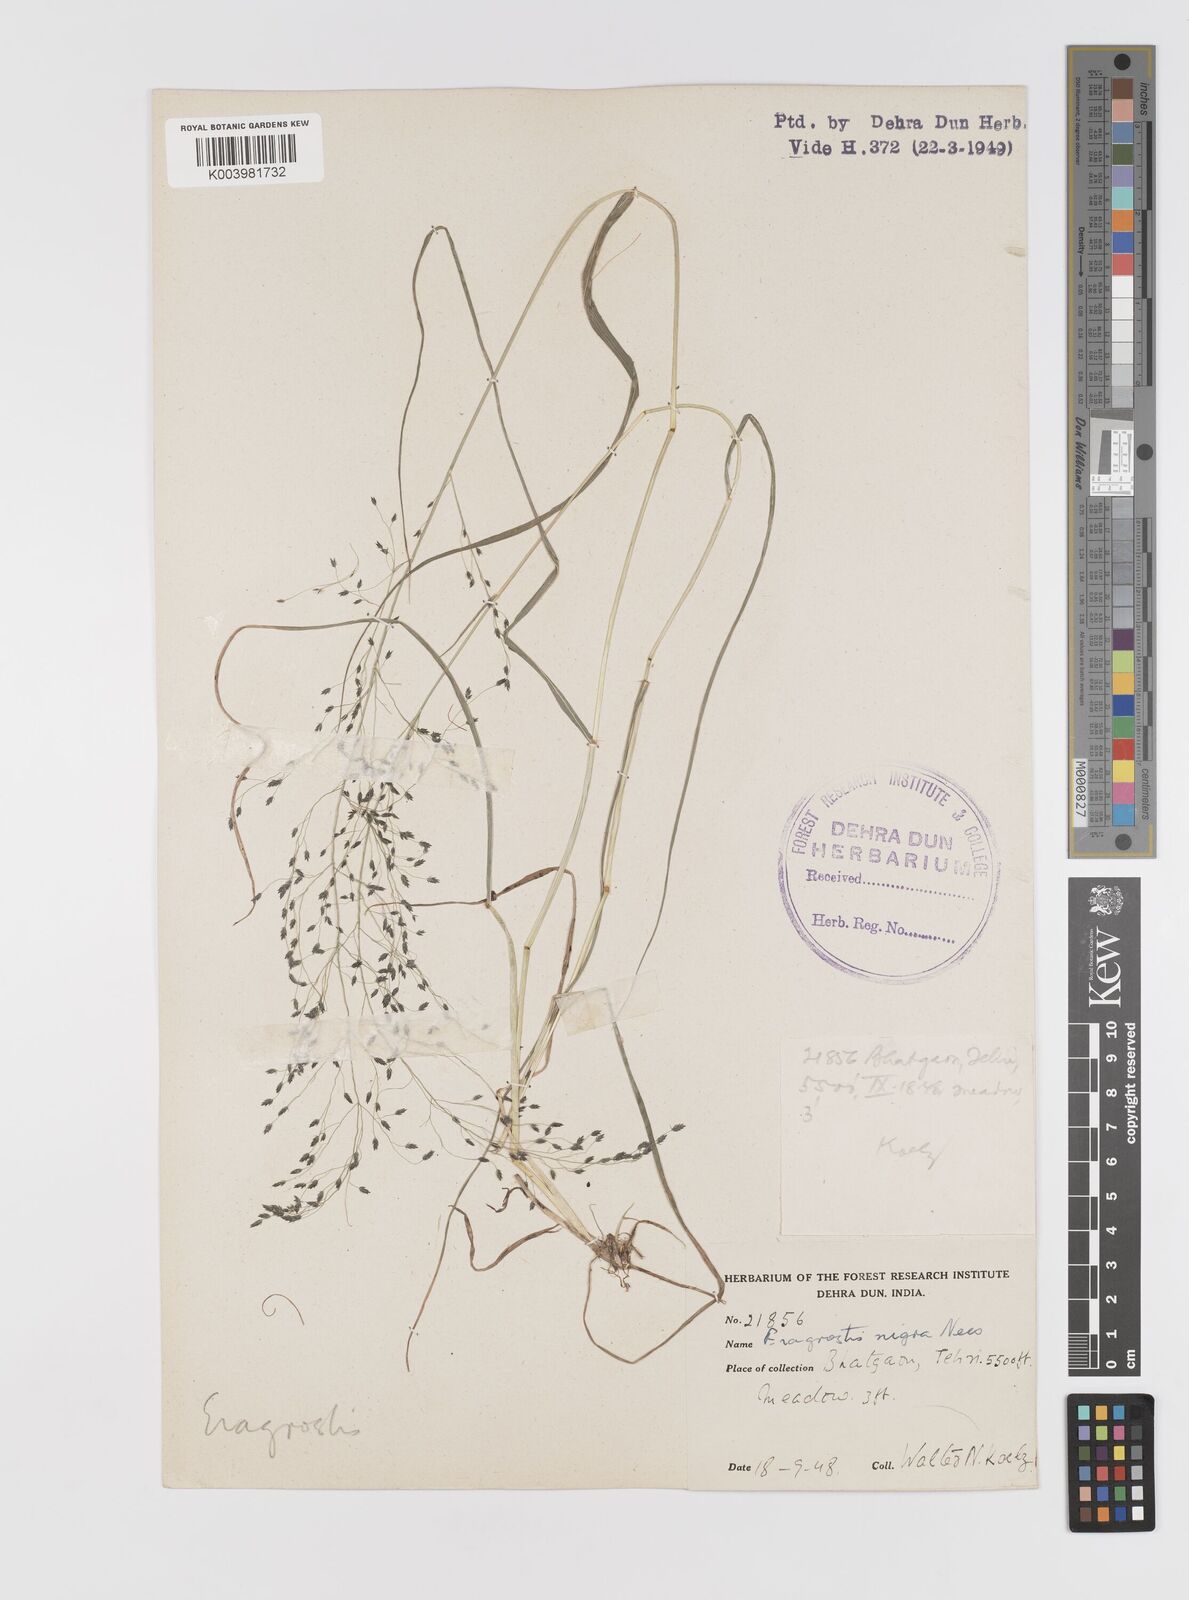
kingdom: Plantae
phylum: Tracheophyta
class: Liliopsida
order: Poales
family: Poaceae
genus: Eragrostis
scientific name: Eragrostis nigra
